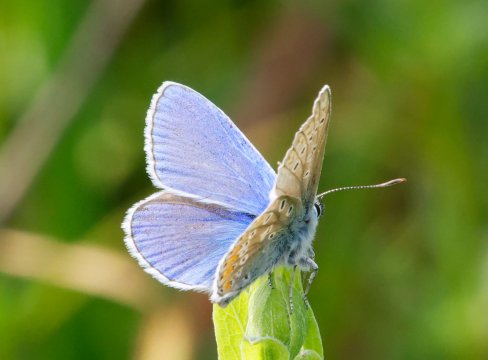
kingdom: Animalia
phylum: Arthropoda
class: Insecta
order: Lepidoptera
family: Lycaenidae
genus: Polyommatus
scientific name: Polyommatus icarus
